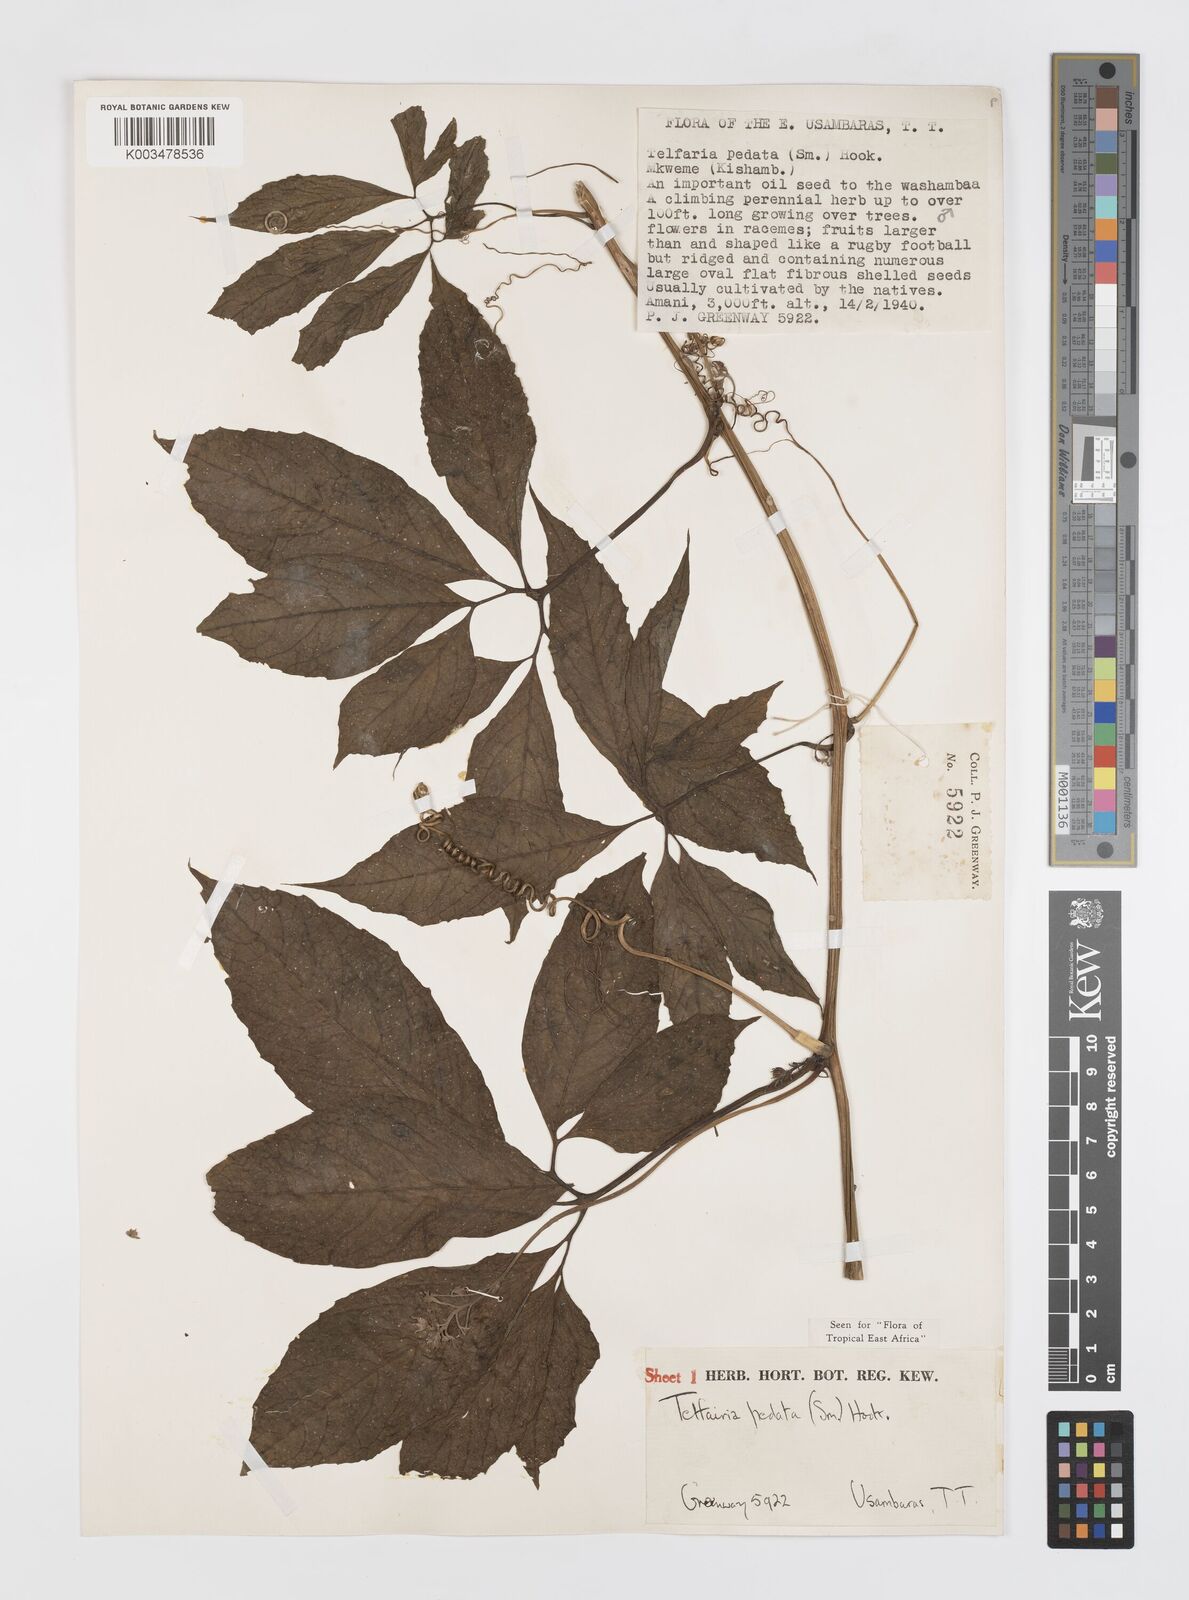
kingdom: Plantae
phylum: Tracheophyta
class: Magnoliopsida
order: Cucurbitales
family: Cucurbitaceae
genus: Telfairia
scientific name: Telfairia pedata
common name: Zanzibar oilvine
